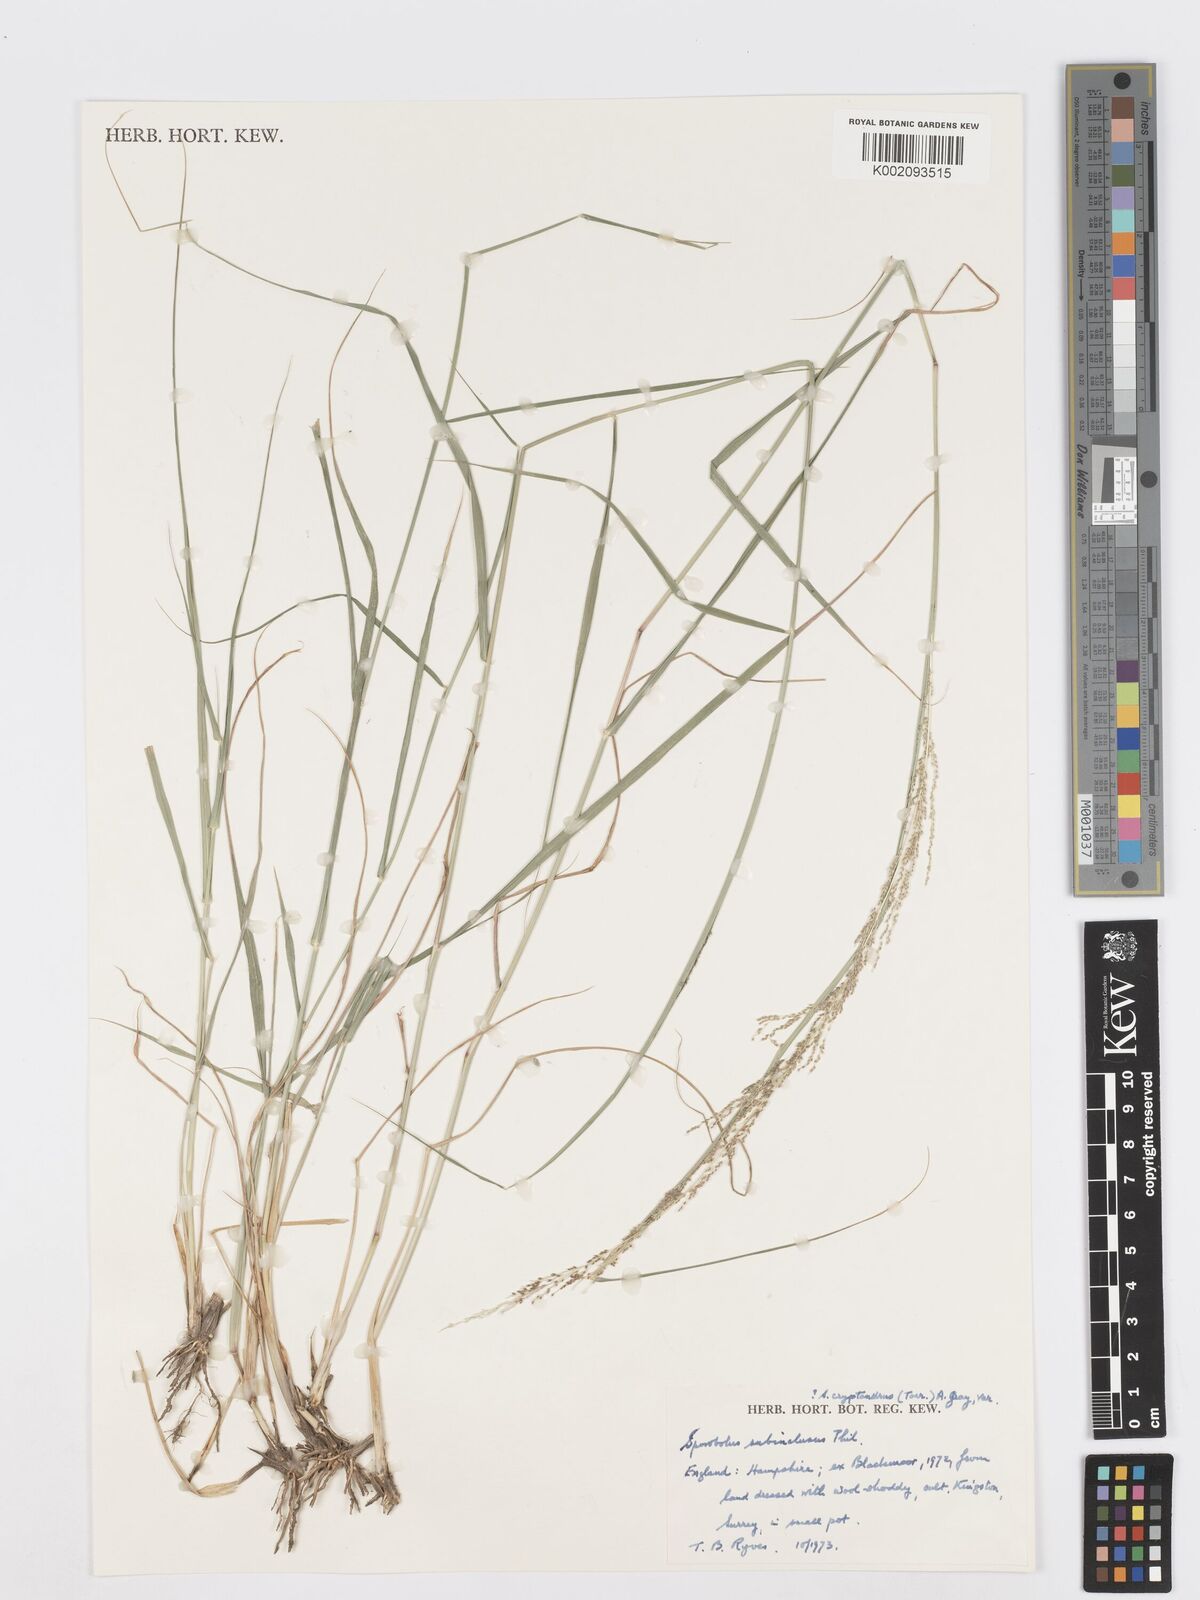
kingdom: Plantae
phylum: Tracheophyta
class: Liliopsida
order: Poales
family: Poaceae
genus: Sporobolus
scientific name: Sporobolus cryptandrus
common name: Sand dropseed
